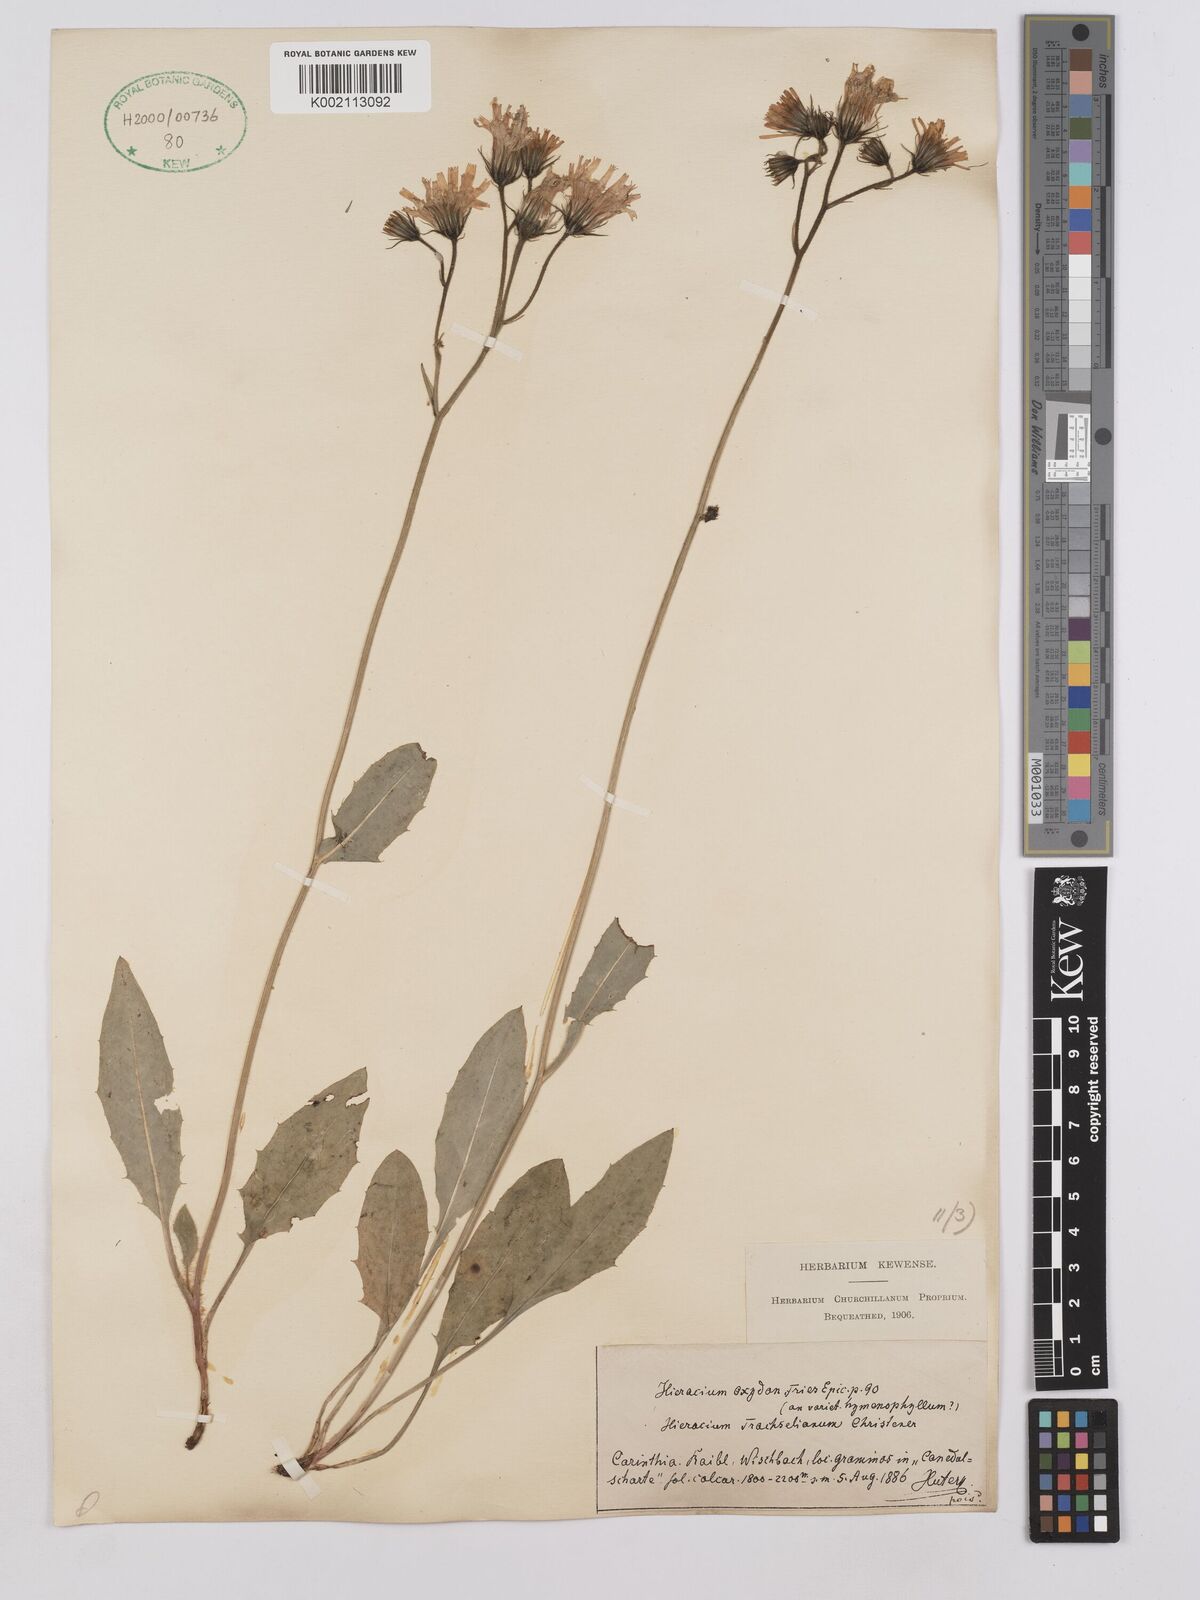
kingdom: Plantae
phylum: Tracheophyta
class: Magnoliopsida
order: Asterales
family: Asteraceae
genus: Hieracium
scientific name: Hieracium glaucum
